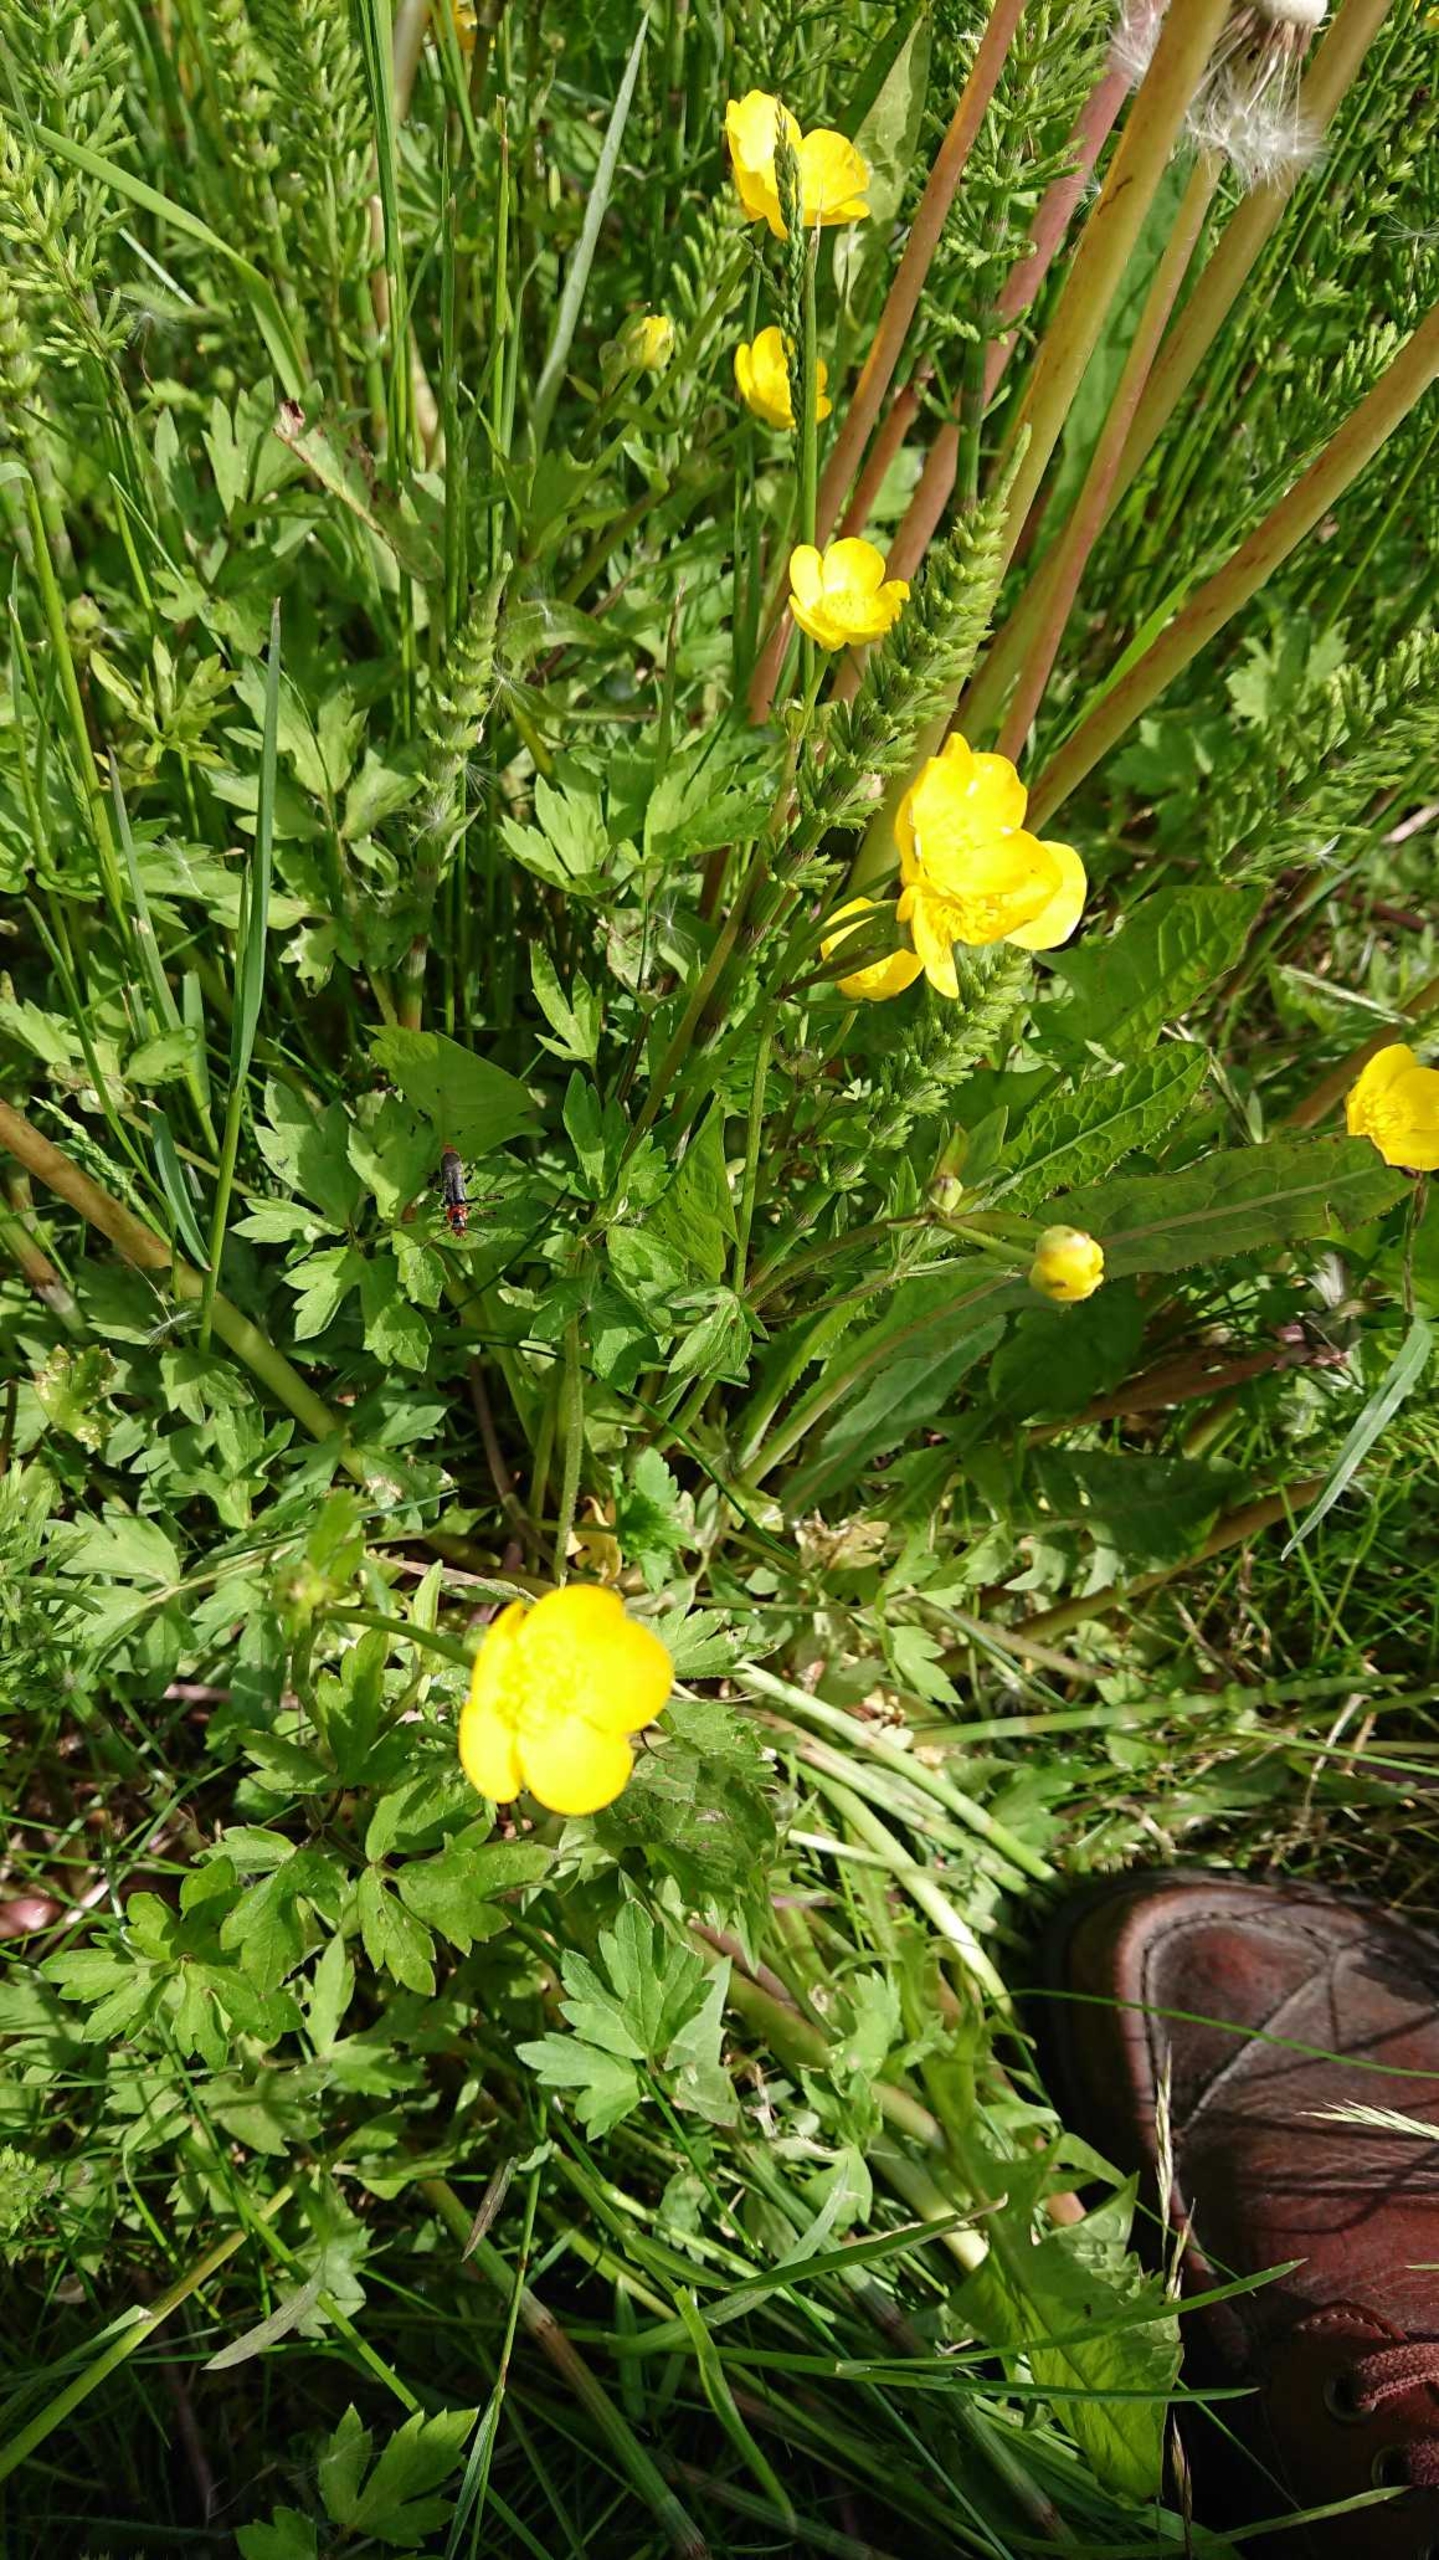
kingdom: Plantae
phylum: Tracheophyta
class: Magnoliopsida
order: Ranunculales
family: Ranunculaceae
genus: Ranunculus
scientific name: Ranunculus repens
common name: Lav ranunkel
